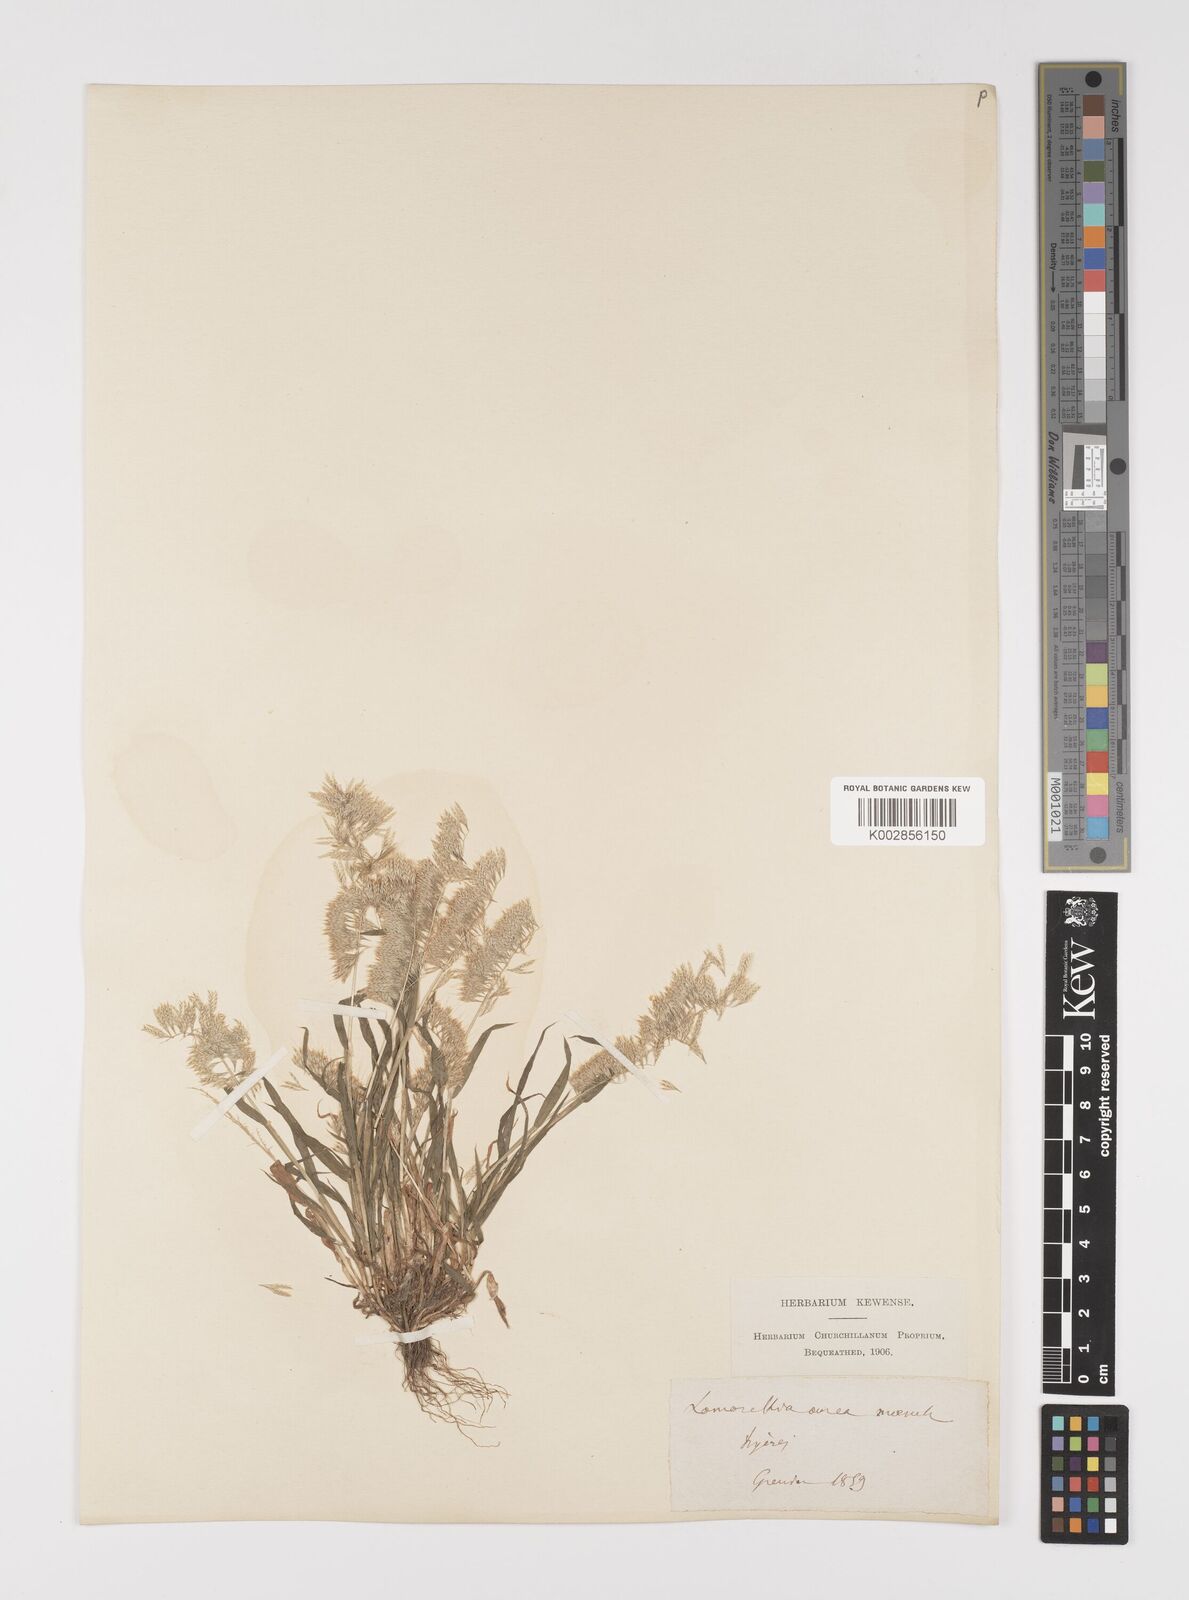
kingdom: Plantae
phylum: Tracheophyta
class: Liliopsida
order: Poales
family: Poaceae
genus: Lamarckia
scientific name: Lamarckia aurea
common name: Golden dog's-tail
